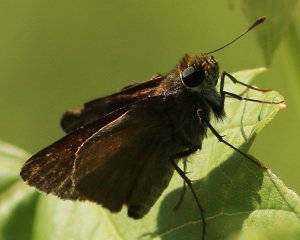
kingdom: Animalia
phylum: Arthropoda
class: Insecta
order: Lepidoptera
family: Hesperiidae
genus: Euphyes
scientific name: Euphyes vestris
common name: Dun Skipper
